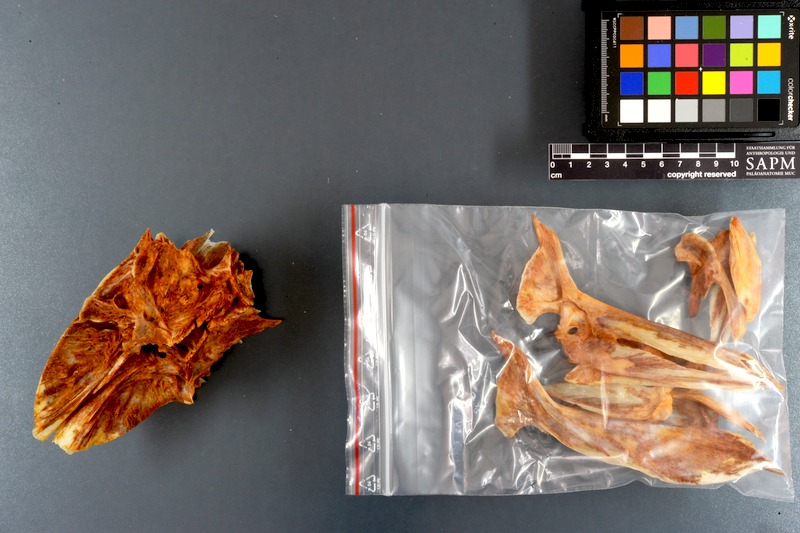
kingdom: Animalia
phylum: Chordata
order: Perciformes
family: Carangidae
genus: Seriola
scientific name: Seriola dumerili
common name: Greater amberjack
